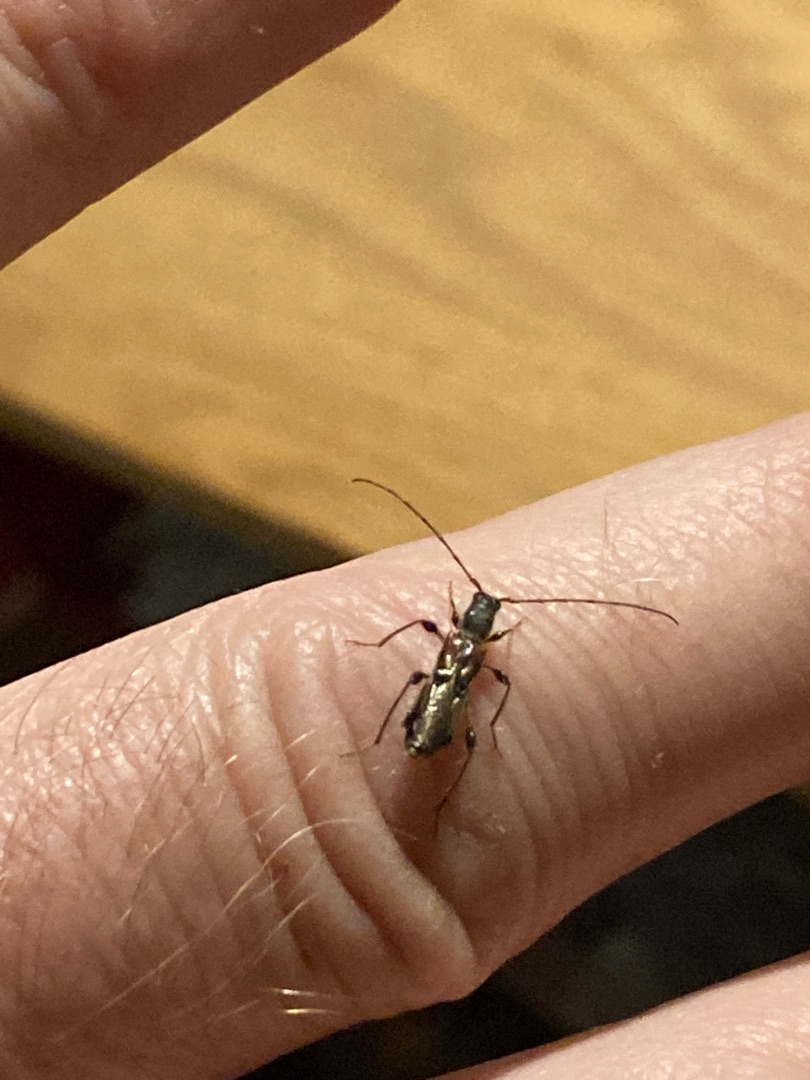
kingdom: Animalia
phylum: Arthropoda
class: Insecta
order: Coleoptera
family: Cerambycidae
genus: Molorchus
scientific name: Molorchus minor
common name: Fluebuk
